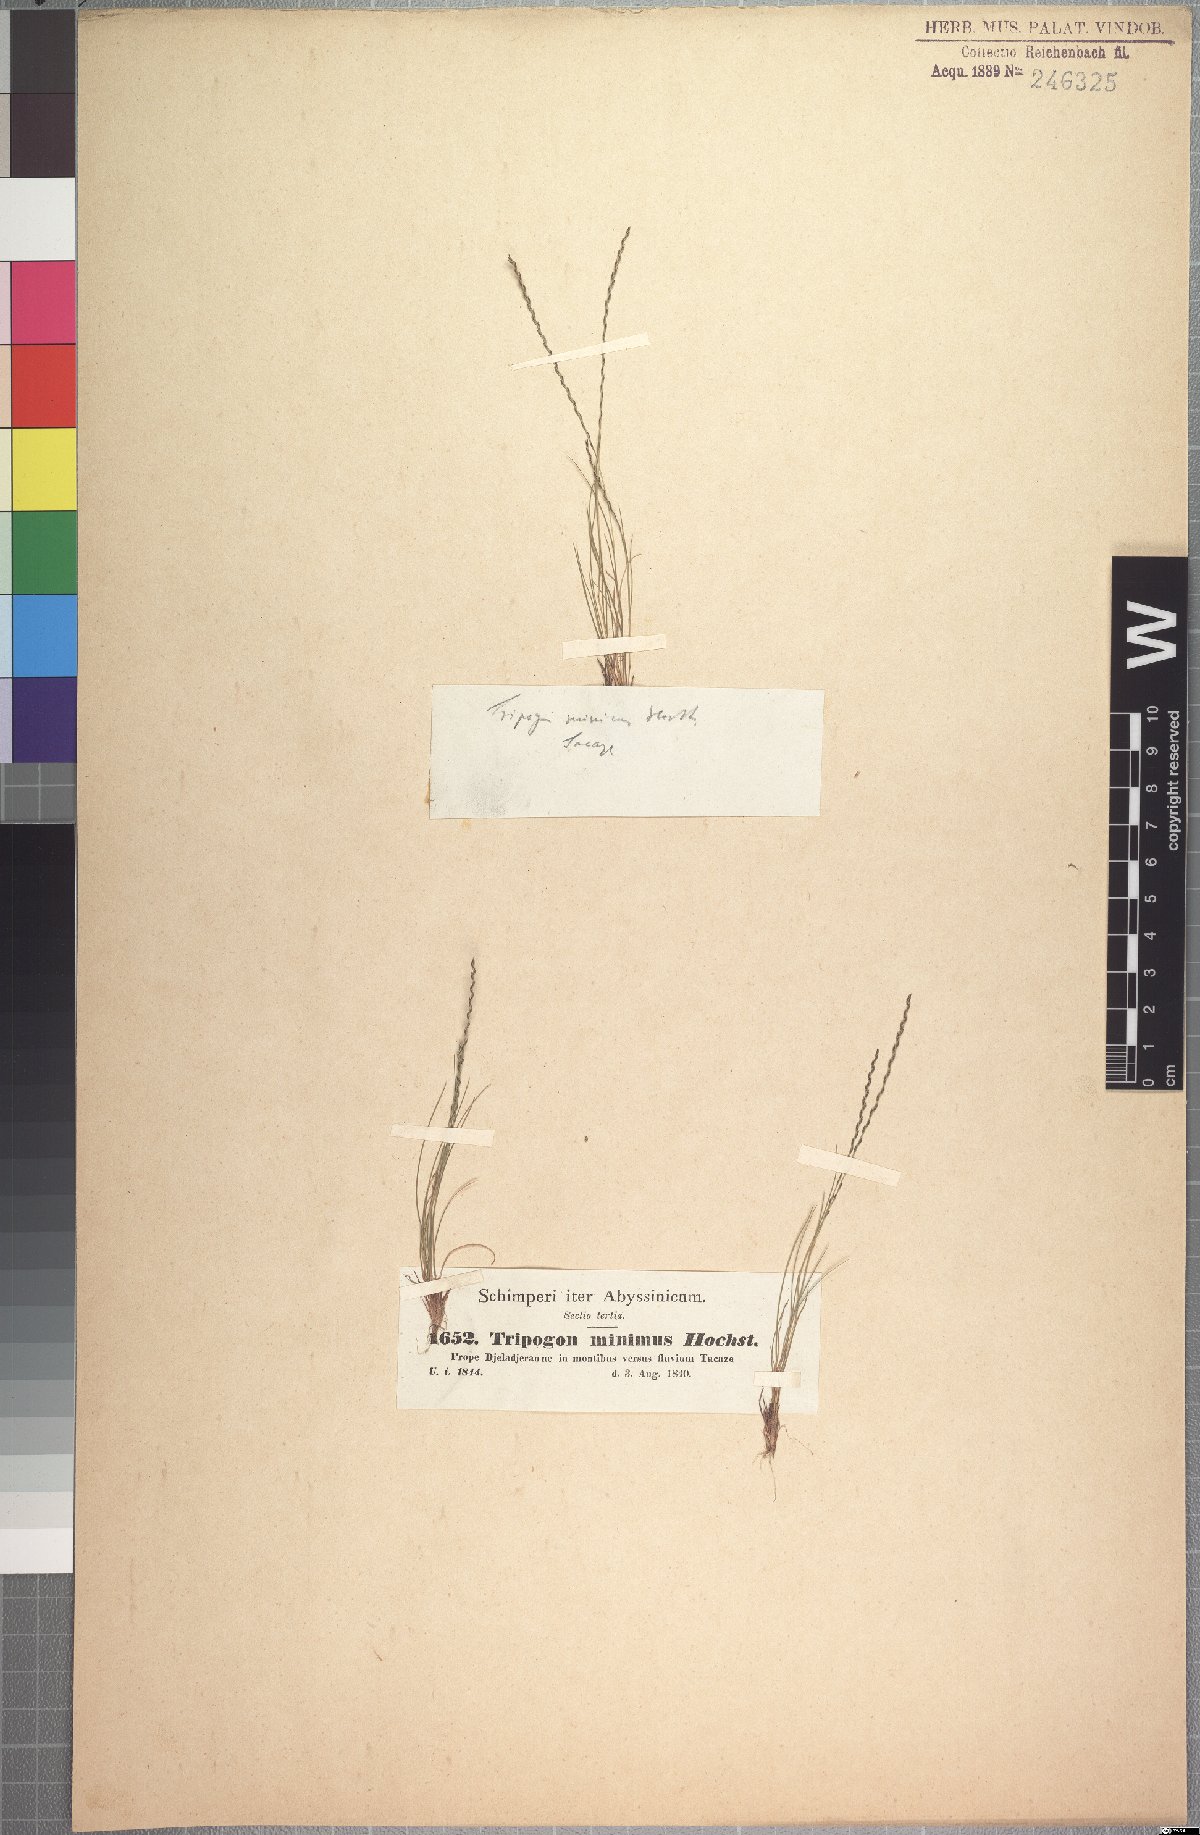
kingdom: Plantae
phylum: Tracheophyta
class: Liliopsida
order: Poales
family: Poaceae
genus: Tripogonella
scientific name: Tripogonella minima
